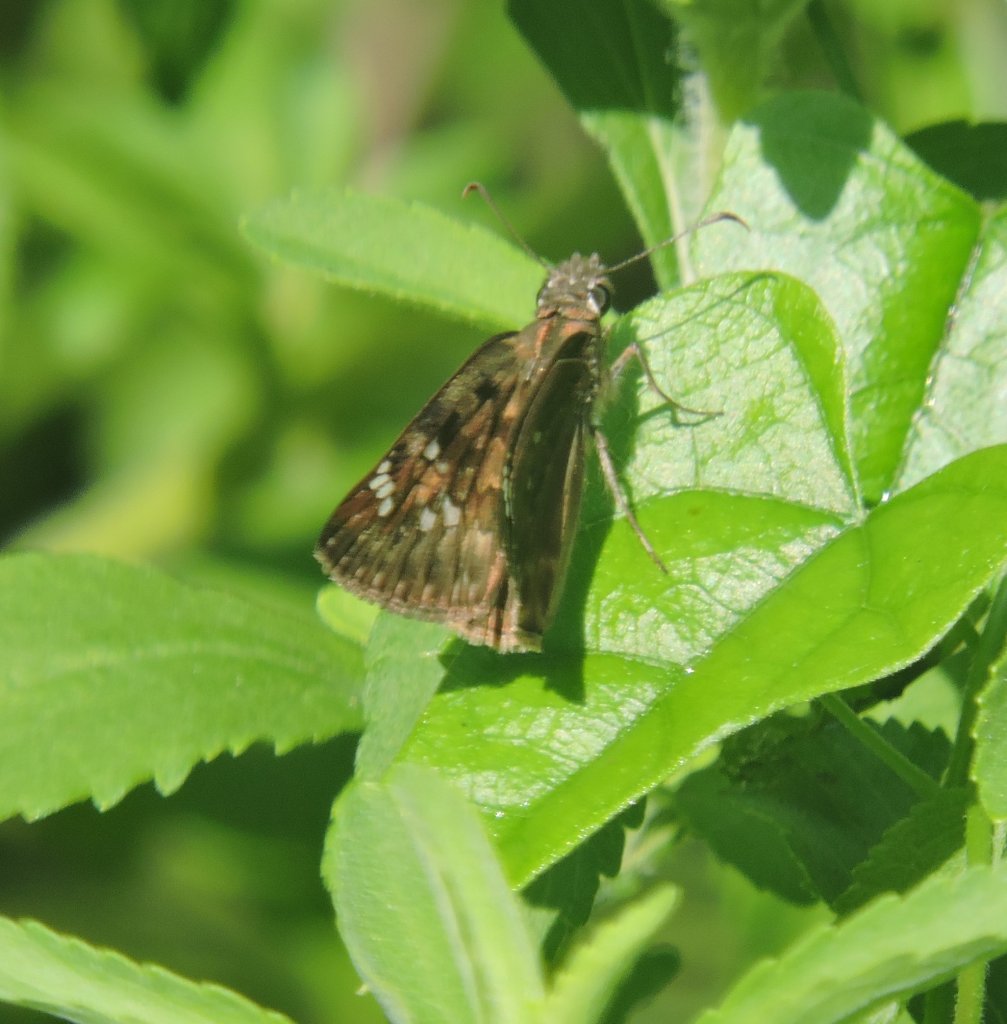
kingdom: Animalia
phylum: Arthropoda
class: Insecta
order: Lepidoptera
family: Hesperiidae
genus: Gesta
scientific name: Gesta
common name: Horace's Duskywing
